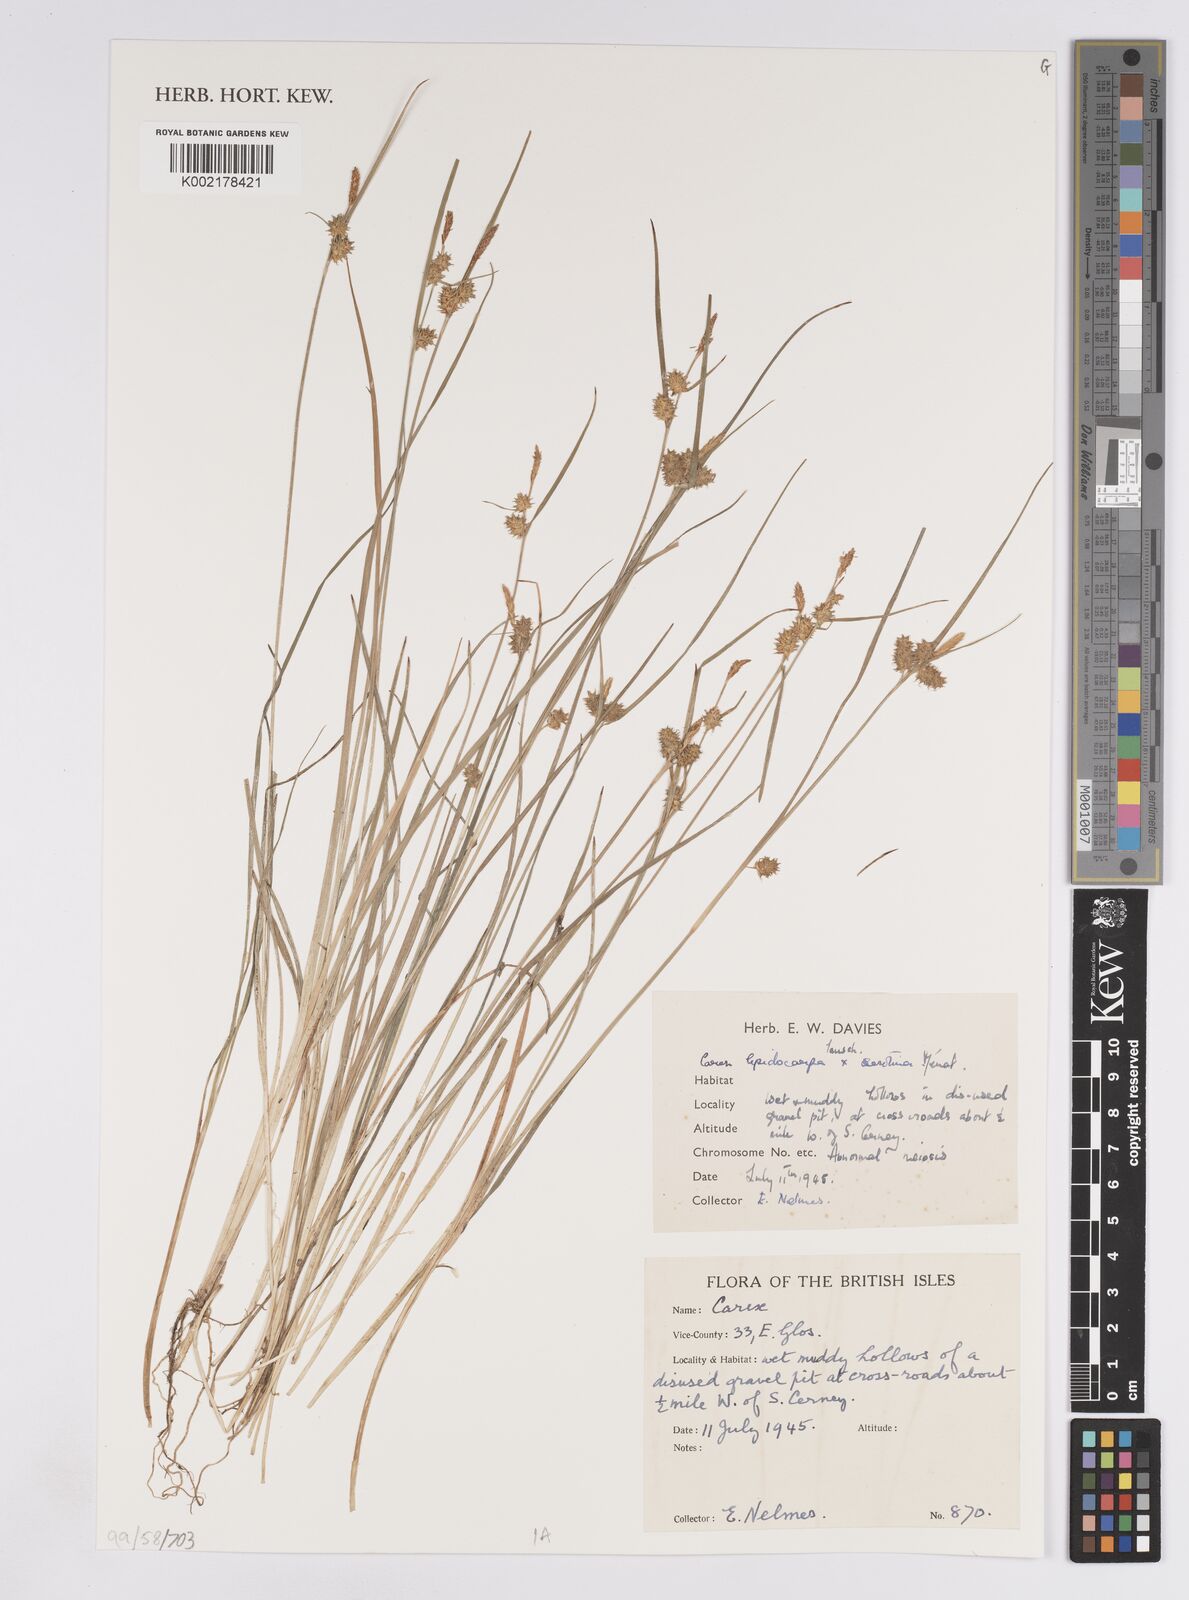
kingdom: Plantae
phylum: Tracheophyta
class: Liliopsida
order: Poales
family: Cyperaceae
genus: Carex
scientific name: Carex lepidocarpa
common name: Long-stalked yellow-sedge
